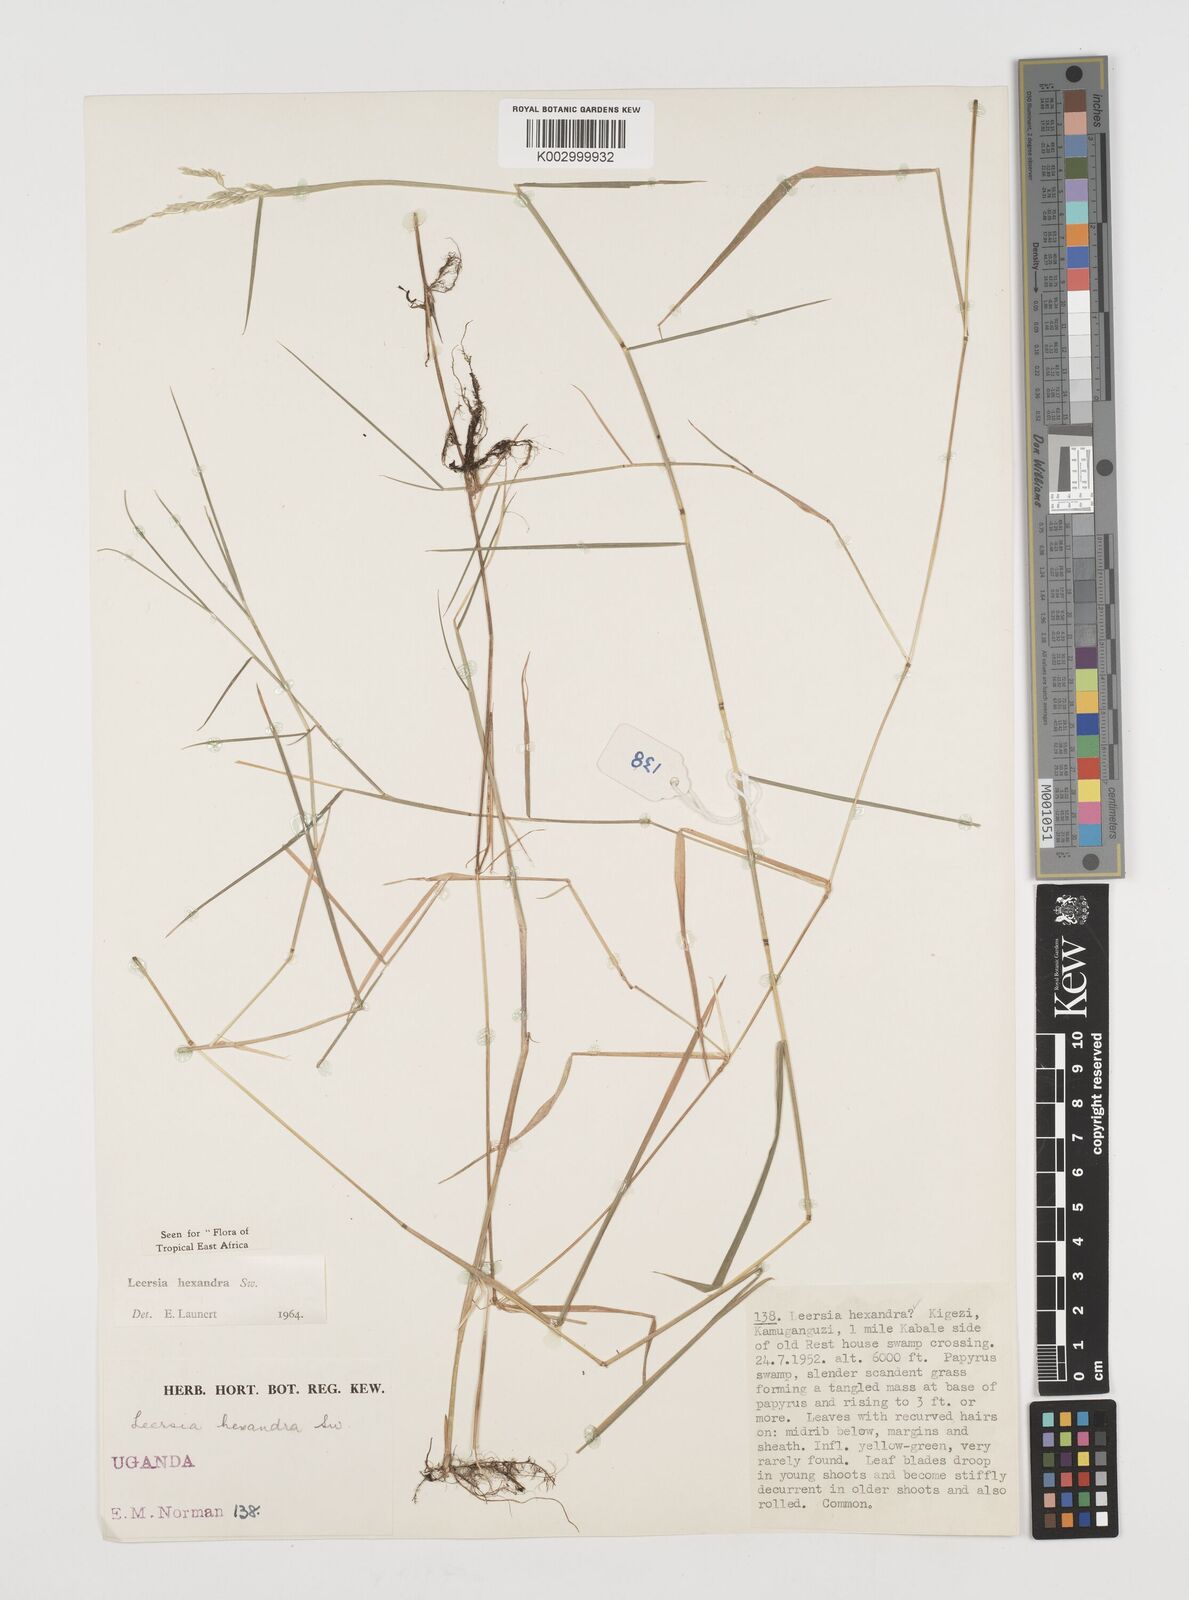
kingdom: Plantae
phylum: Tracheophyta
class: Liliopsida
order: Poales
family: Poaceae
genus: Leersia
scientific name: Leersia hexandra
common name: Southern cut grass
